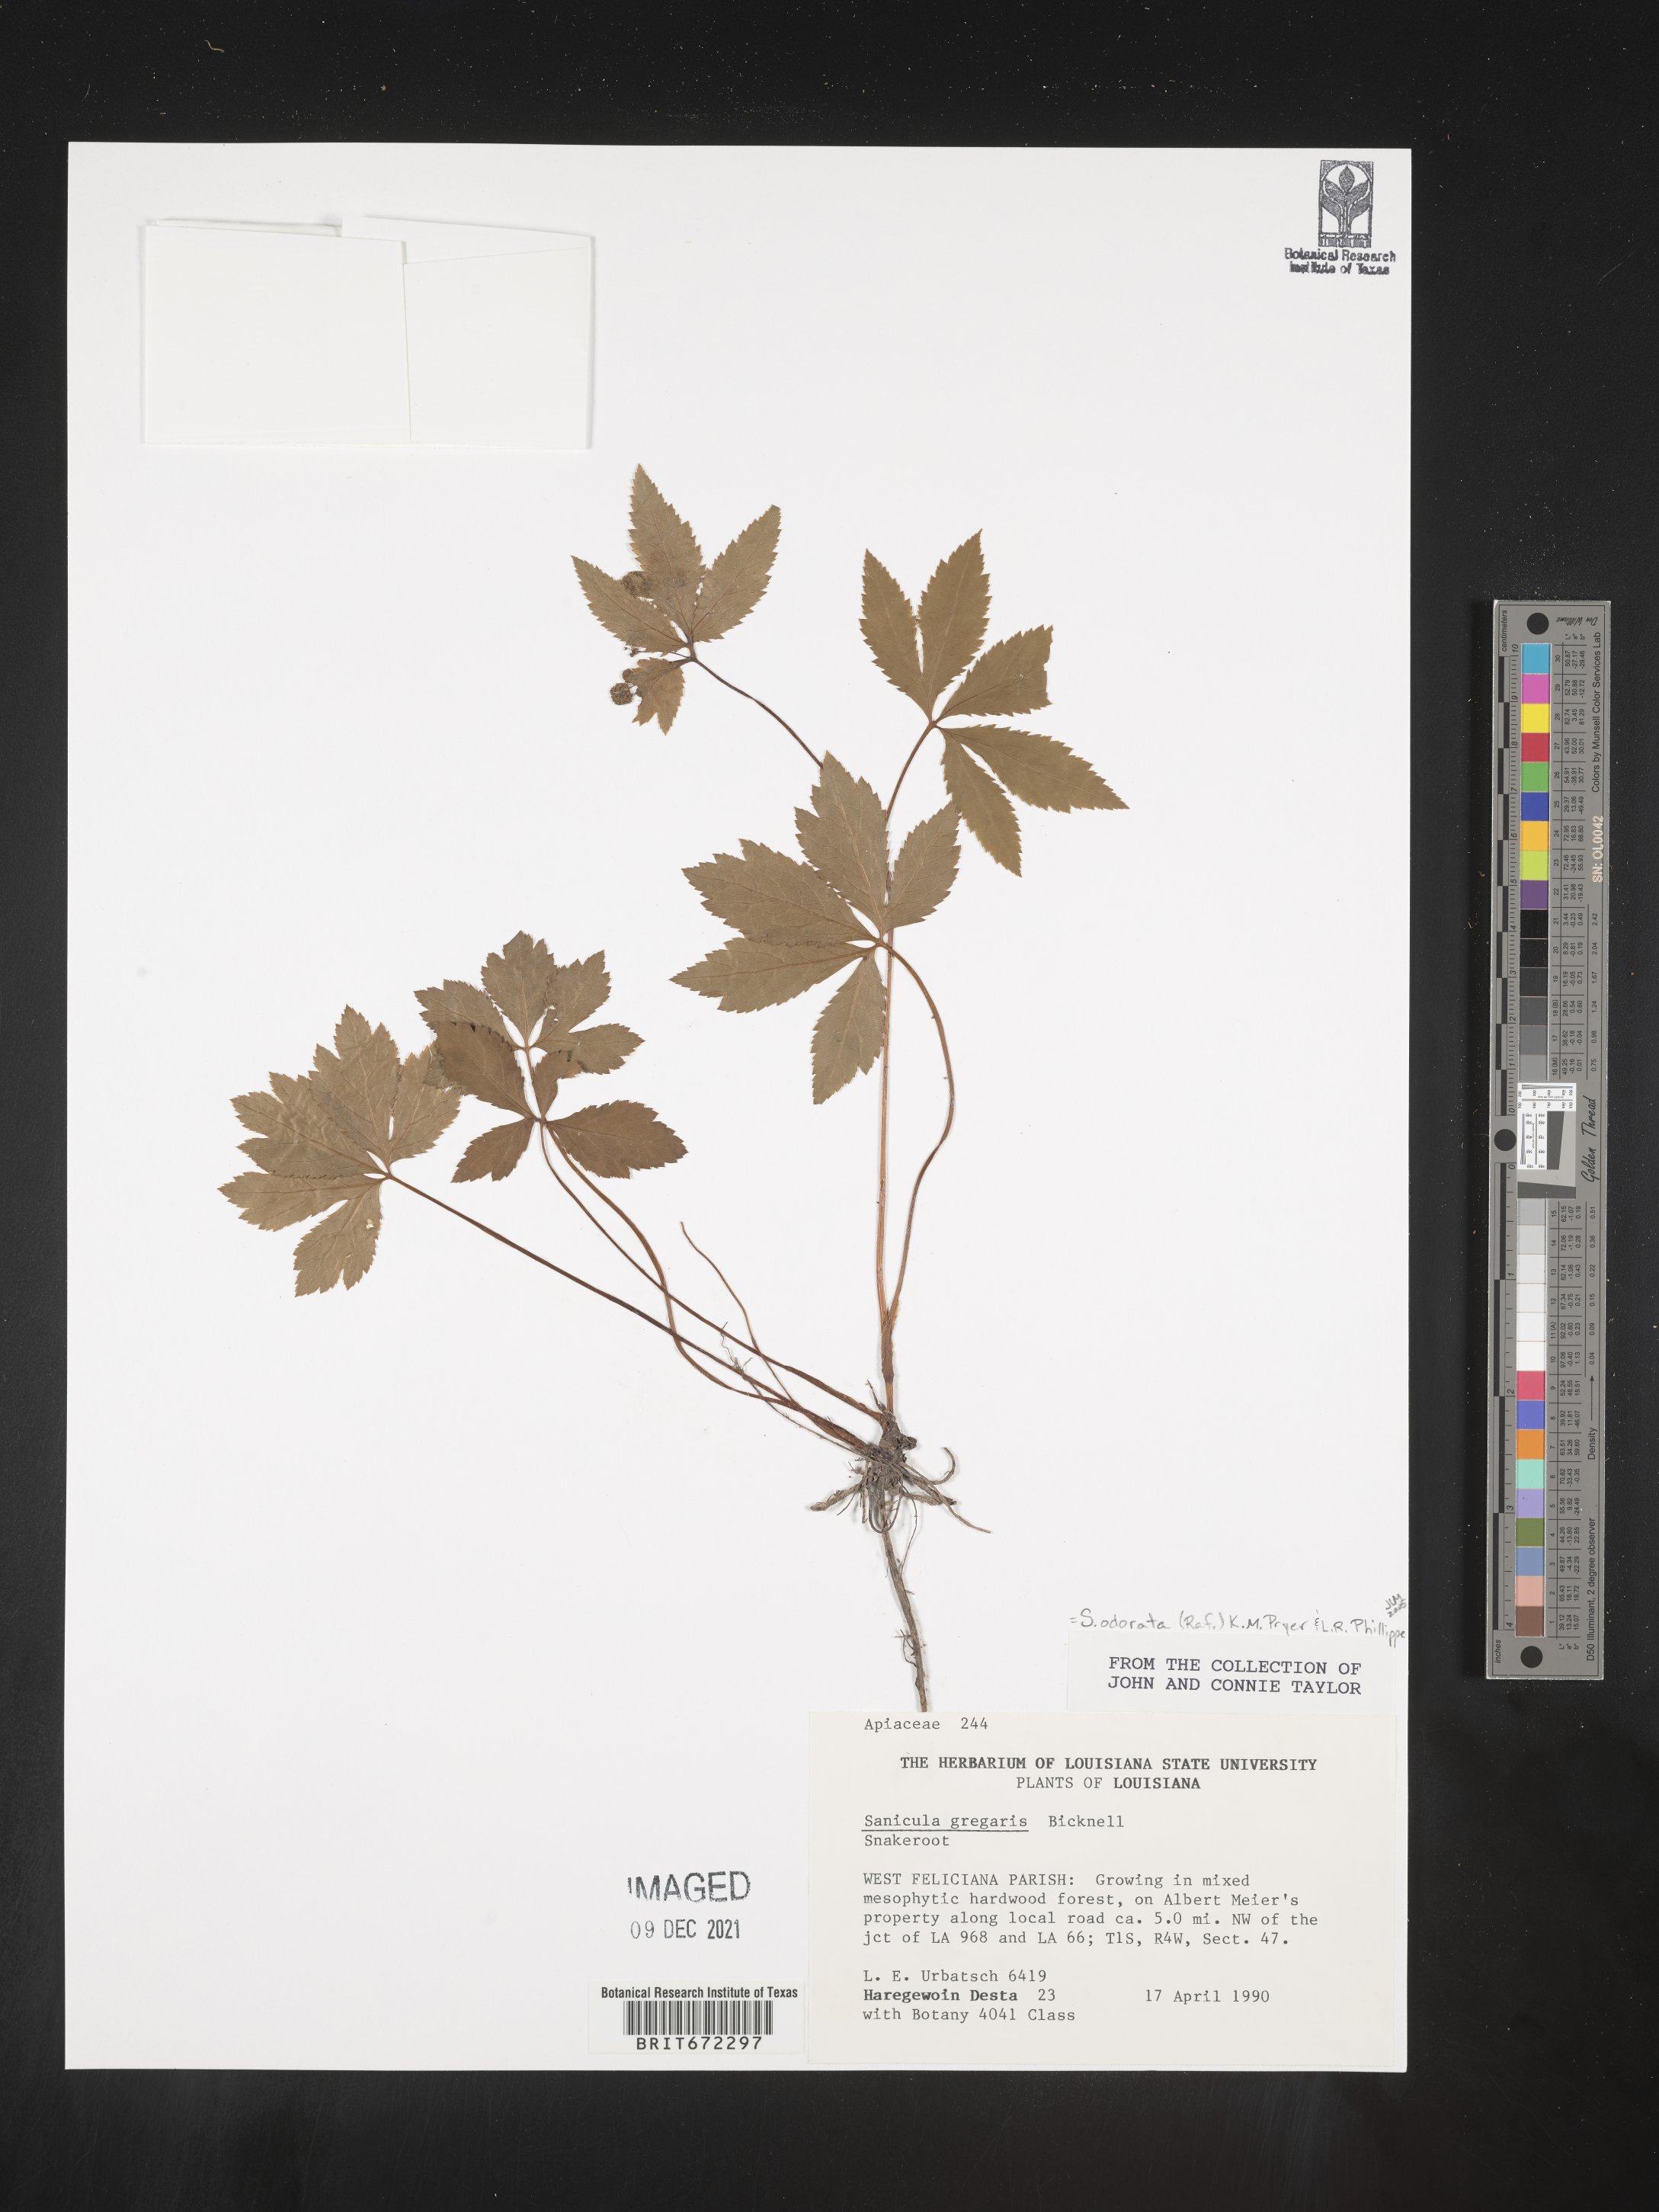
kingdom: Plantae
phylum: Tracheophyta
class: Magnoliopsida
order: Apiales
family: Apiaceae
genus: Sanicula
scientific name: Sanicula
